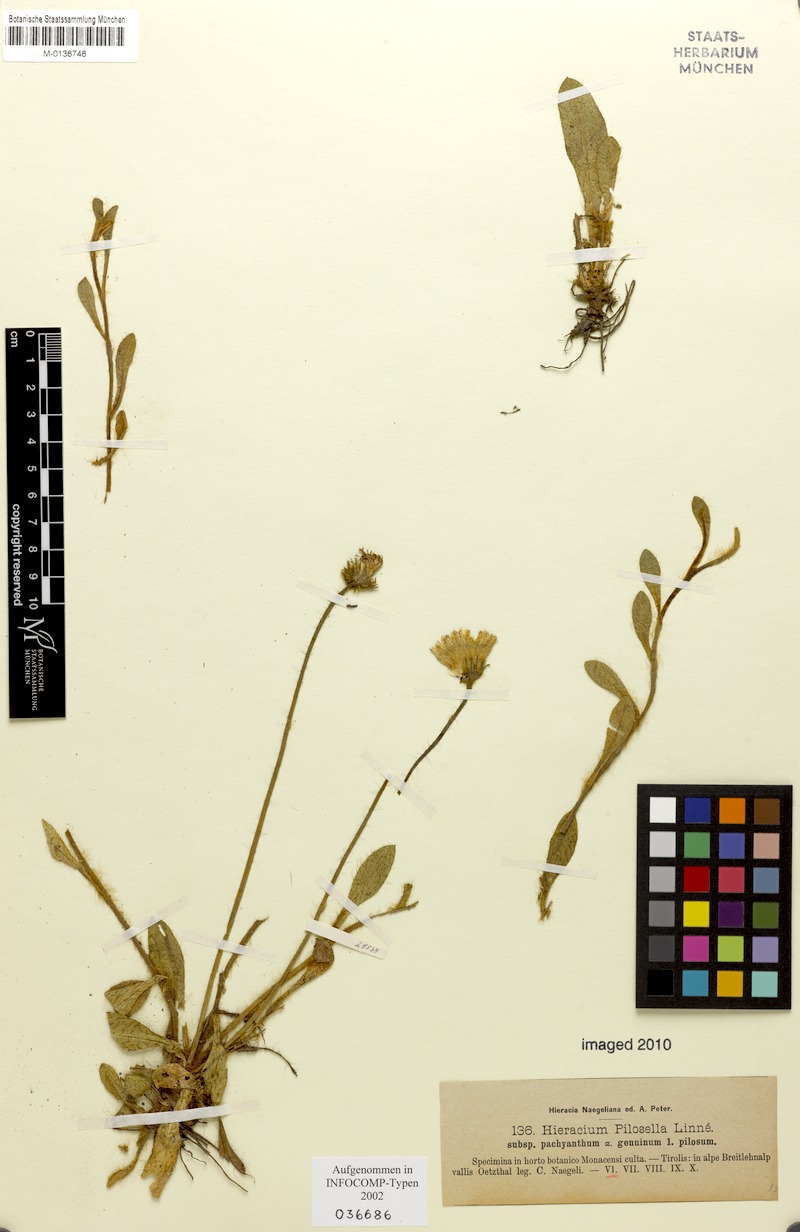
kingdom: Plantae
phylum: Tracheophyta
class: Magnoliopsida
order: Asterales
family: Asteraceae
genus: Pilosella
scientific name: Pilosella officinarum
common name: Mouse-ear hawkweed
